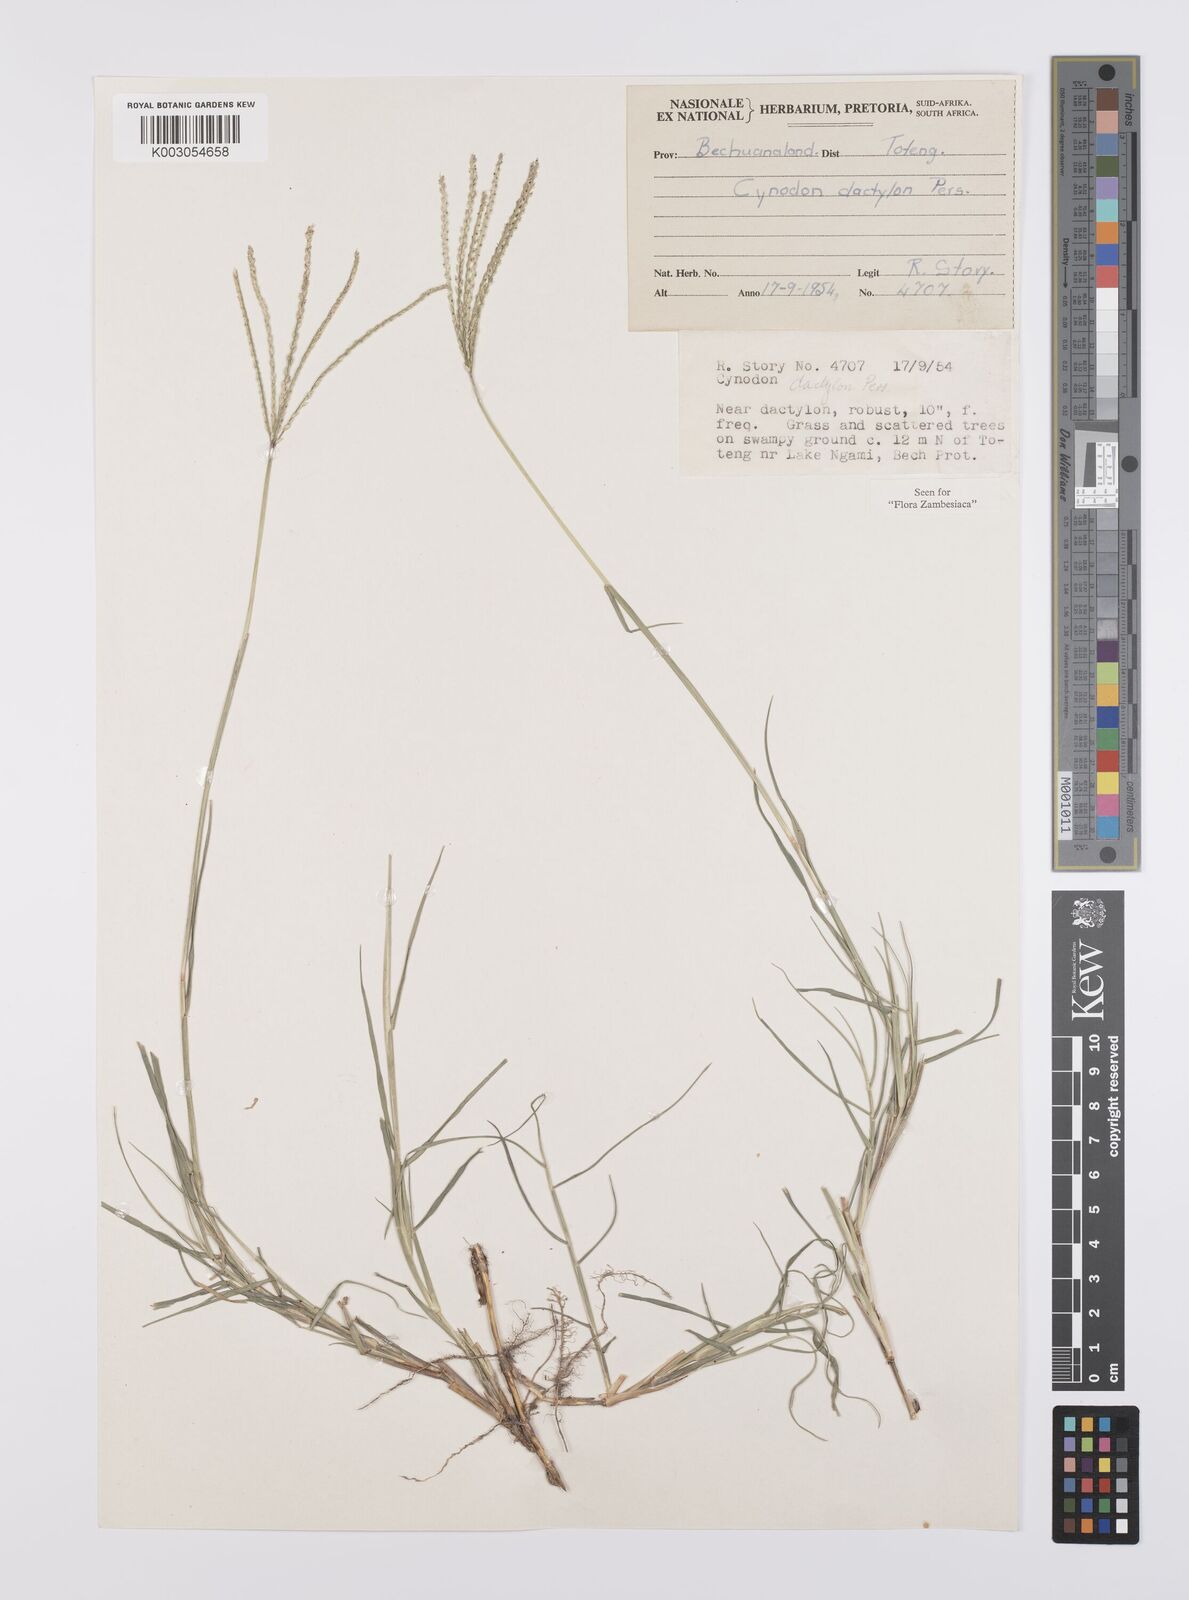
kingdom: Plantae
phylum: Tracheophyta
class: Liliopsida
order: Poales
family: Poaceae
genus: Cynodon
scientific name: Cynodon dactylon
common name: Bermuda grass
